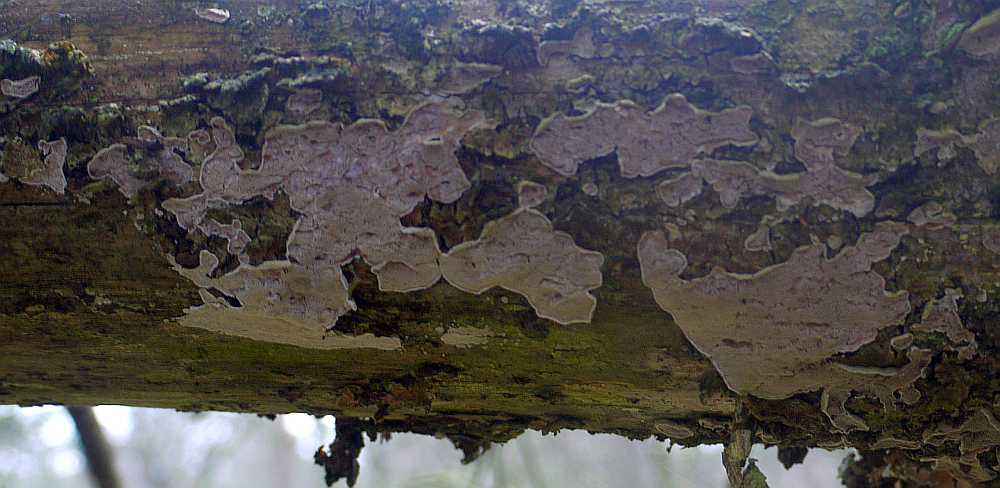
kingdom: Fungi
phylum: Basidiomycota
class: Agaricomycetes
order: Polyporales
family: Incrustoporiaceae
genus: Skeletocutis
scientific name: Skeletocutis carneogrisea
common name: rødgrå krystalporesvamp
